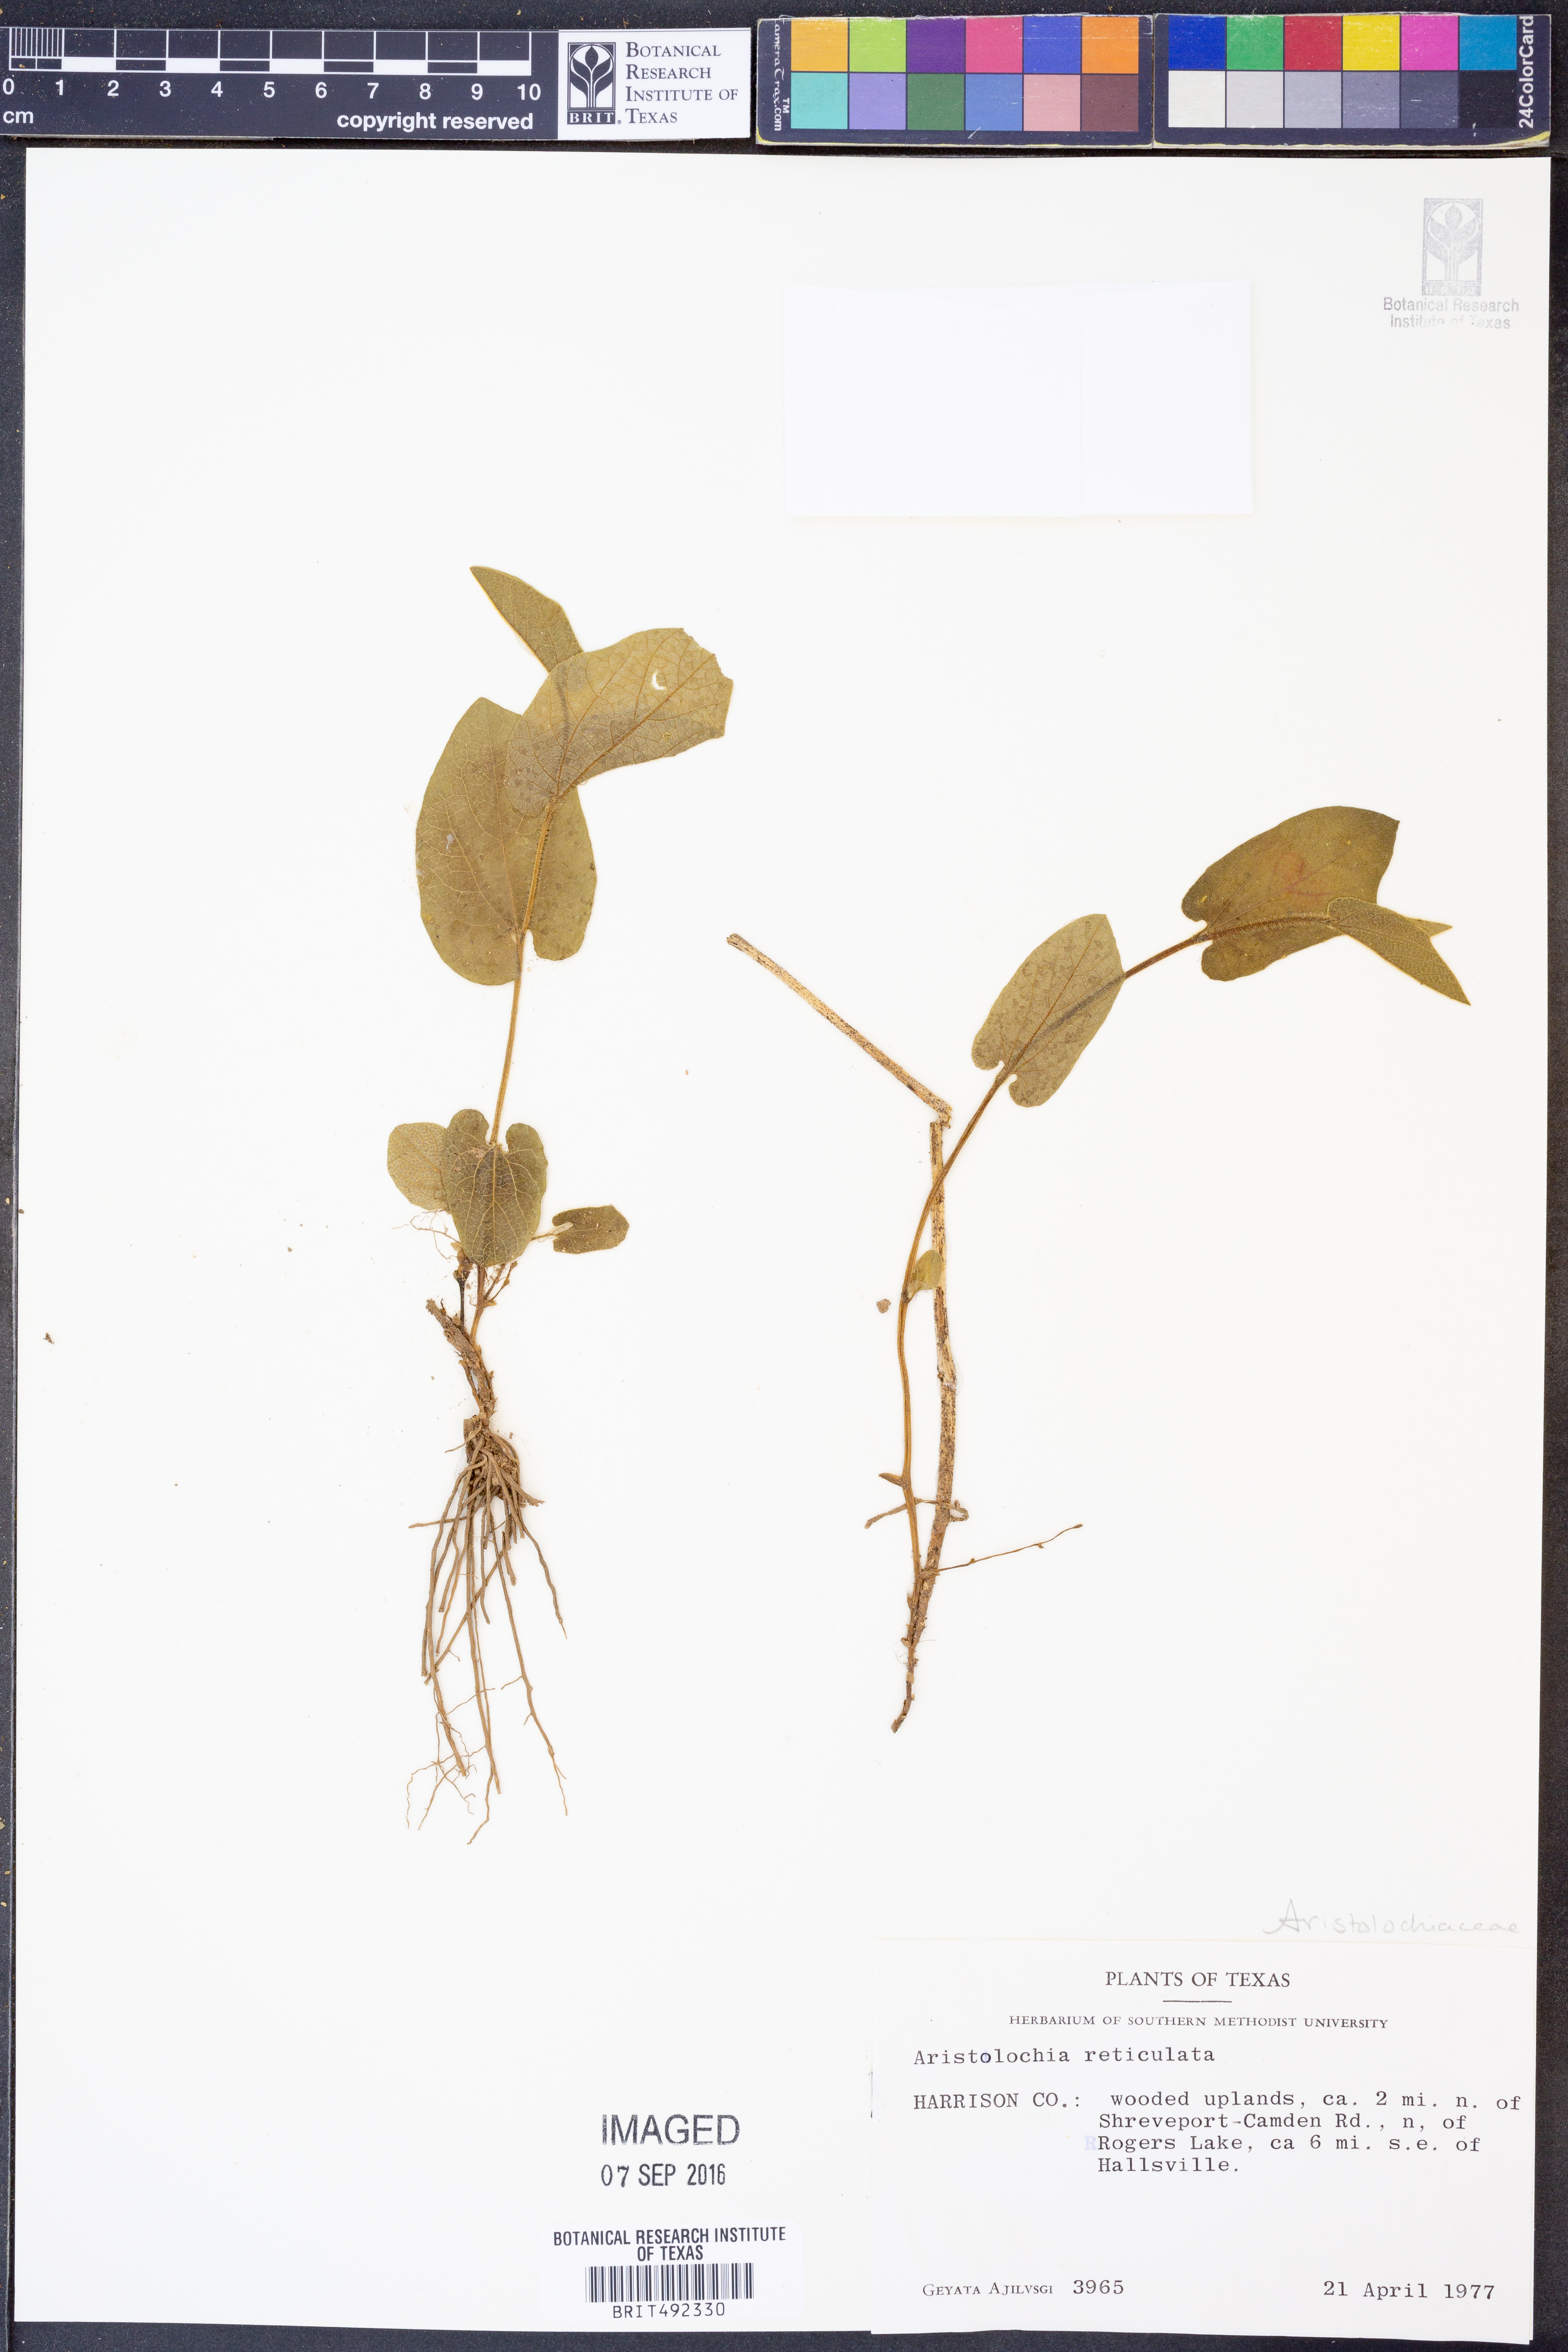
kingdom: Plantae
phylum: Tracheophyta
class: Magnoliopsida
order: Piperales
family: Aristolochiaceae
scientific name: Aristolochiaceae
